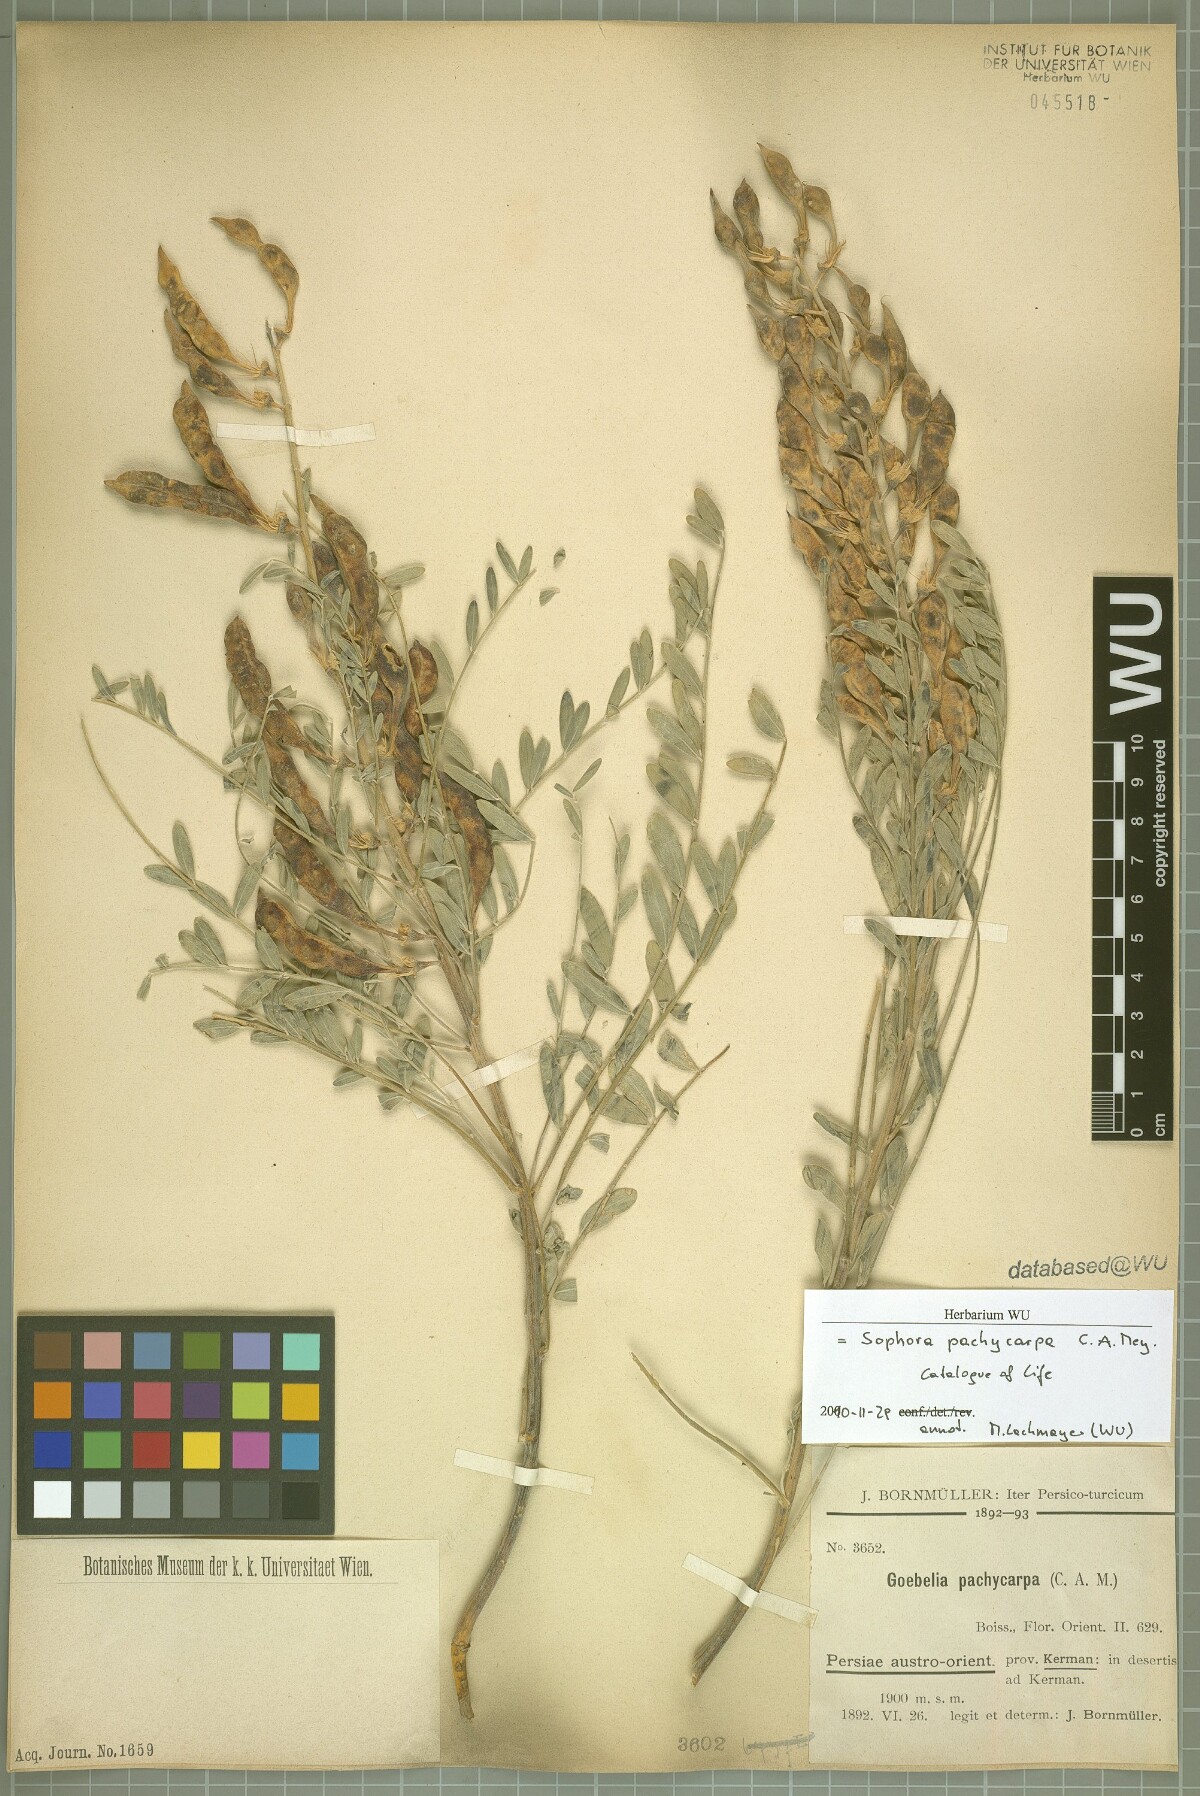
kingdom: Plantae
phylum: Tracheophyta
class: Magnoliopsida
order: Fabales
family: Fabaceae
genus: Sophora
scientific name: Sophora pachycarpa
